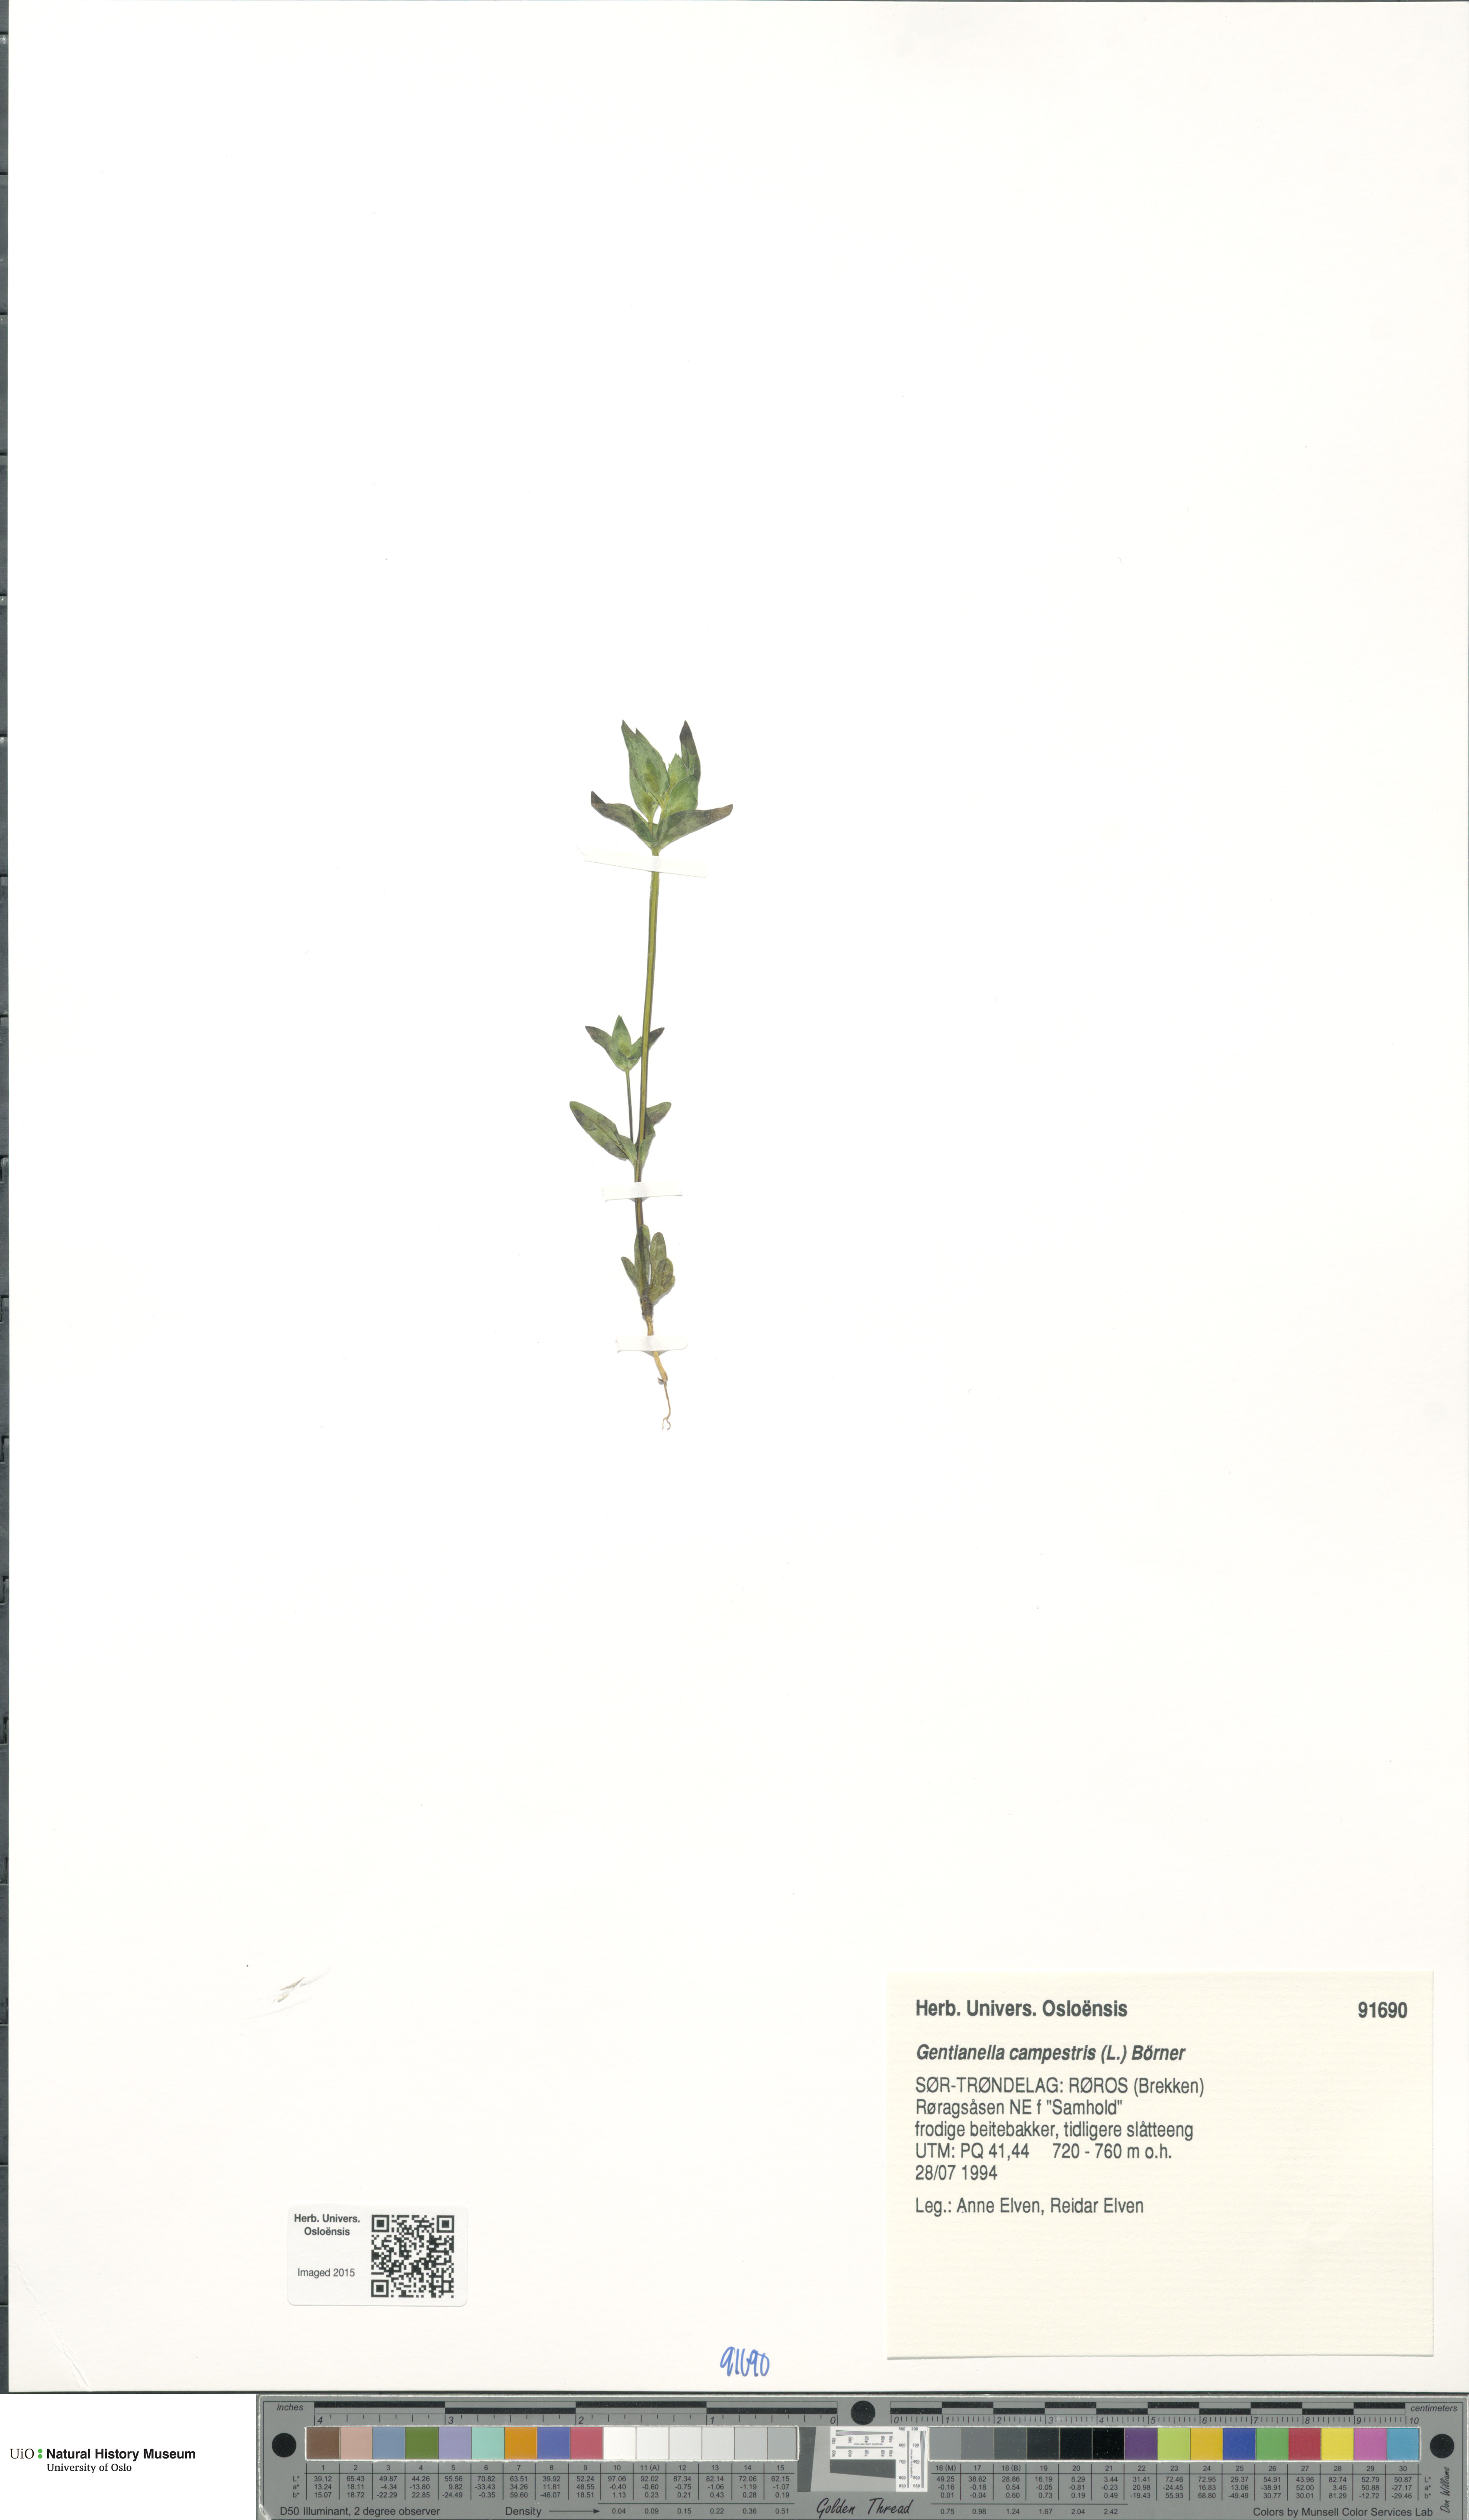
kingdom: Plantae
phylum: Tracheophyta
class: Magnoliopsida
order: Gentianales
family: Gentianaceae
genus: Gentianella
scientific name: Gentianella campestris
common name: Field gentian
